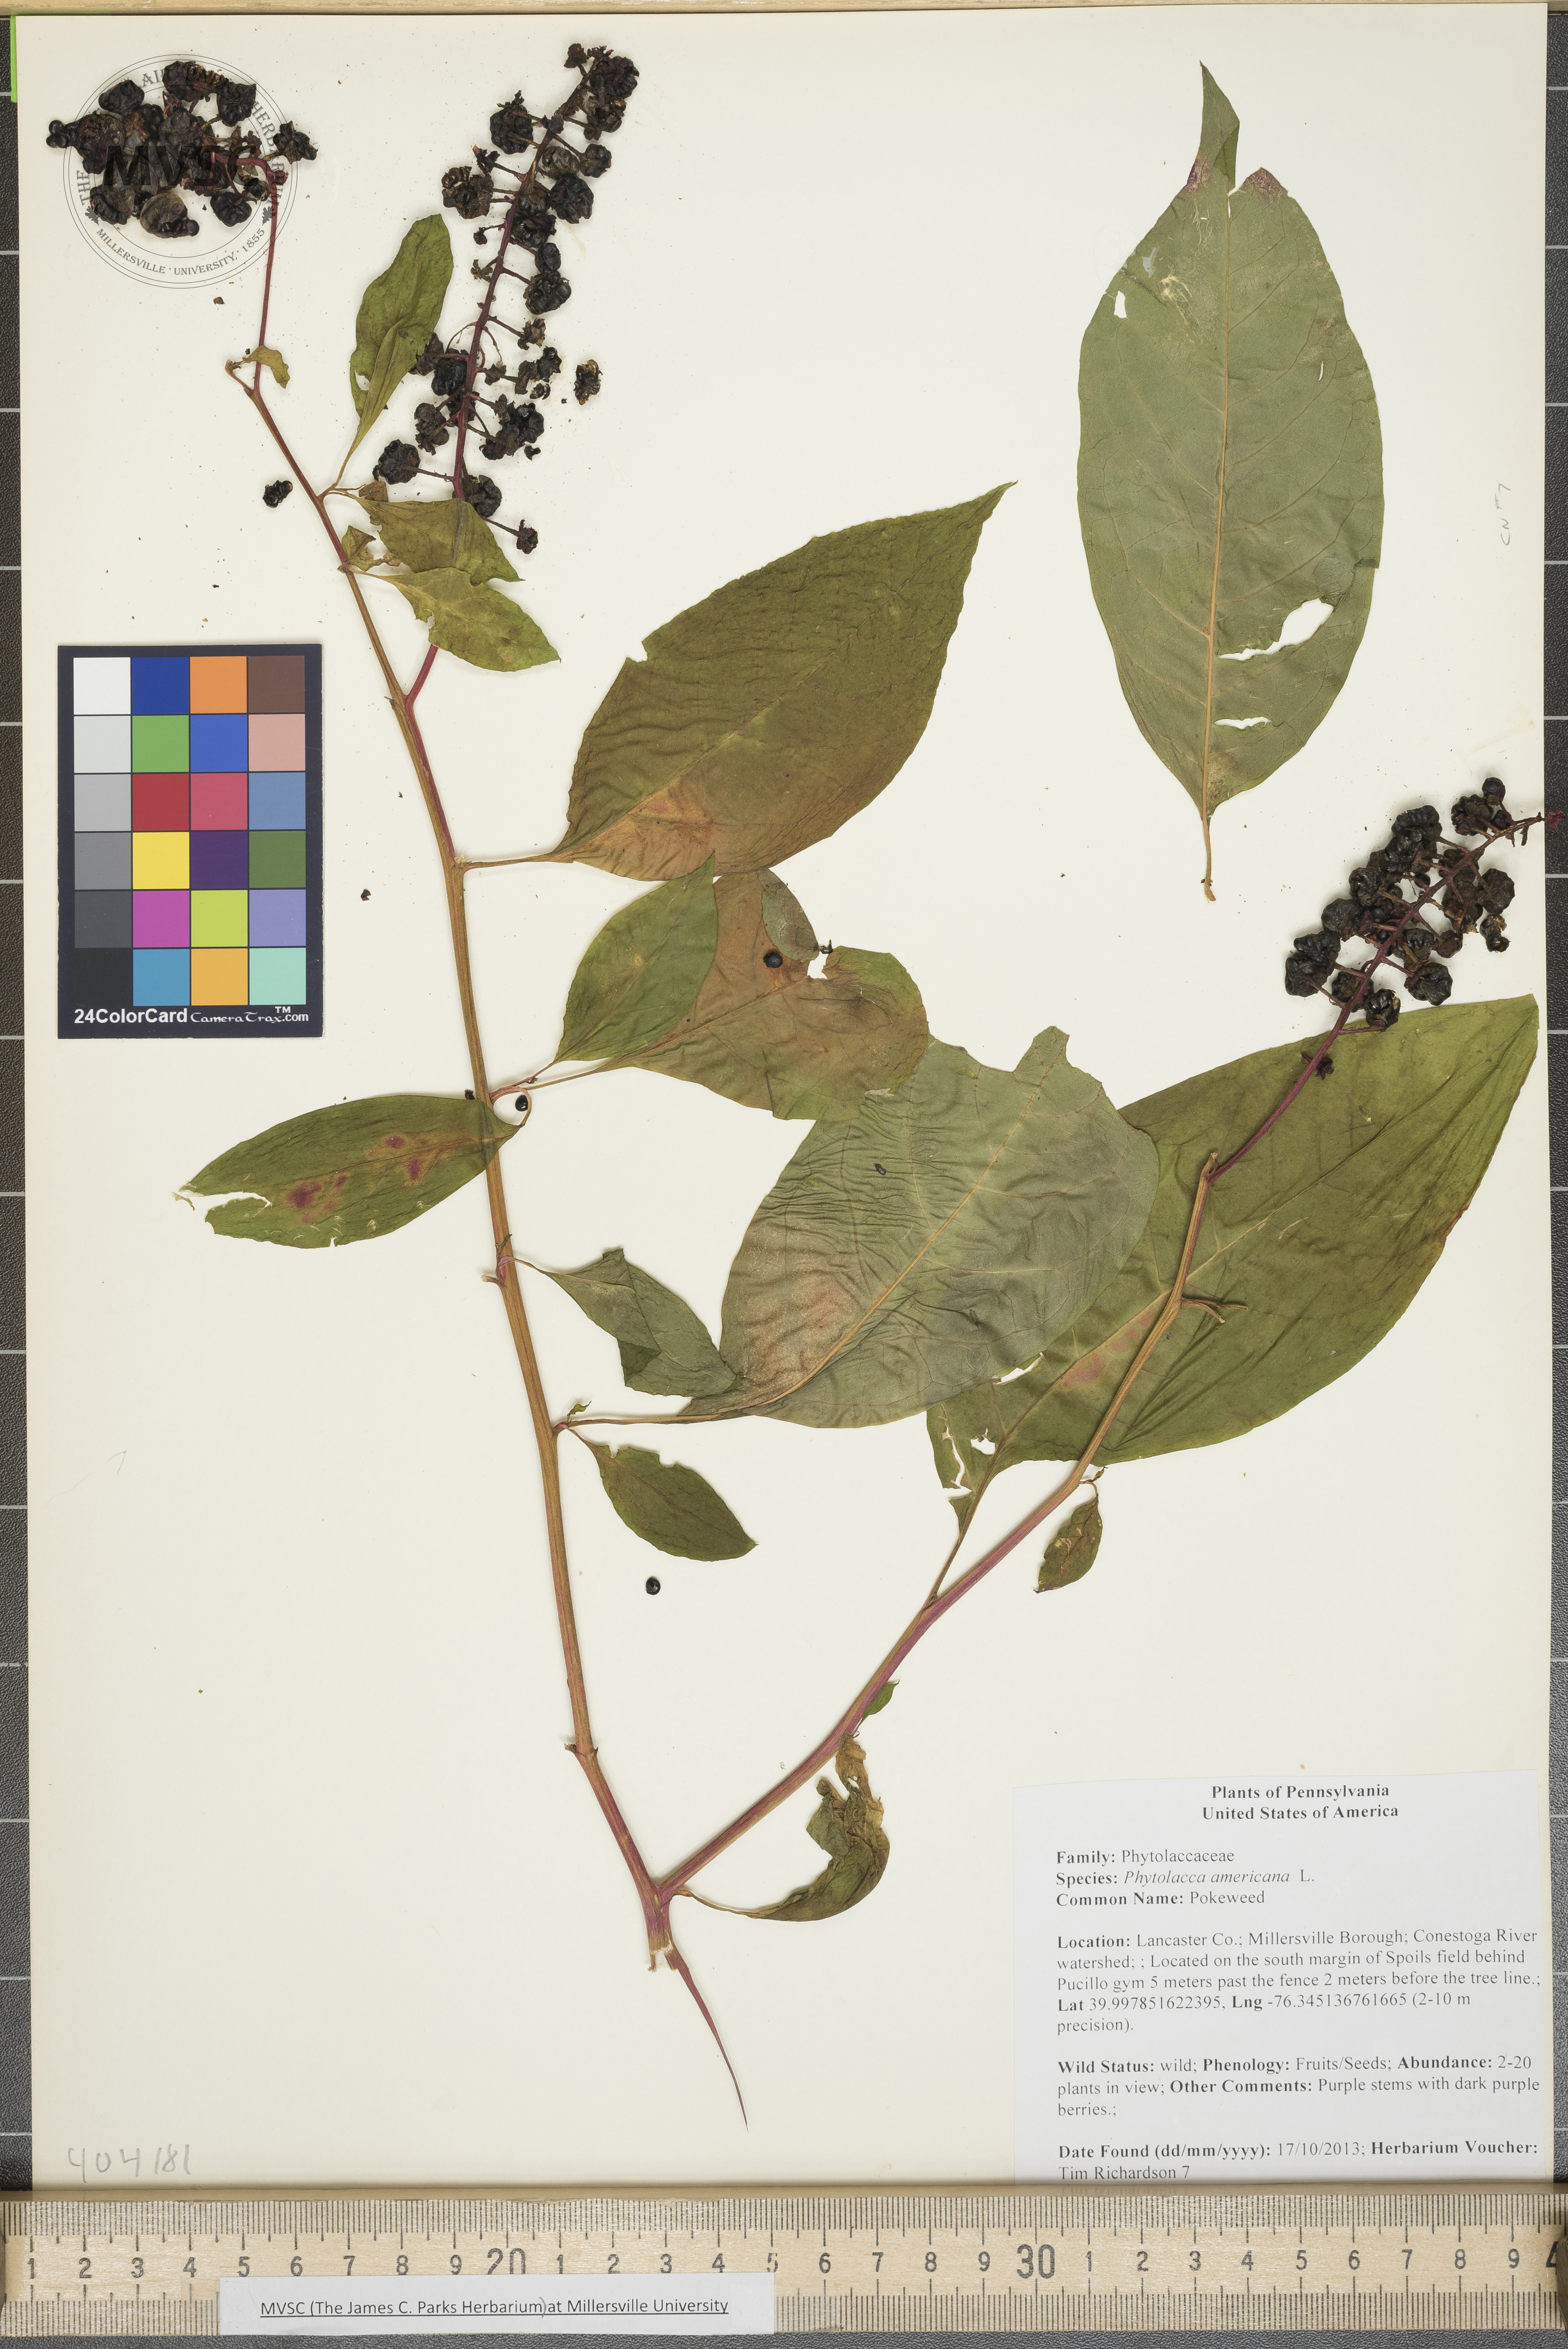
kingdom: Plantae
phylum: Tracheophyta
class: Magnoliopsida
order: Caryophyllales
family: Phytolaccaceae
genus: Phytolacca
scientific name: Phytolacca americana
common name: Pokeweed
